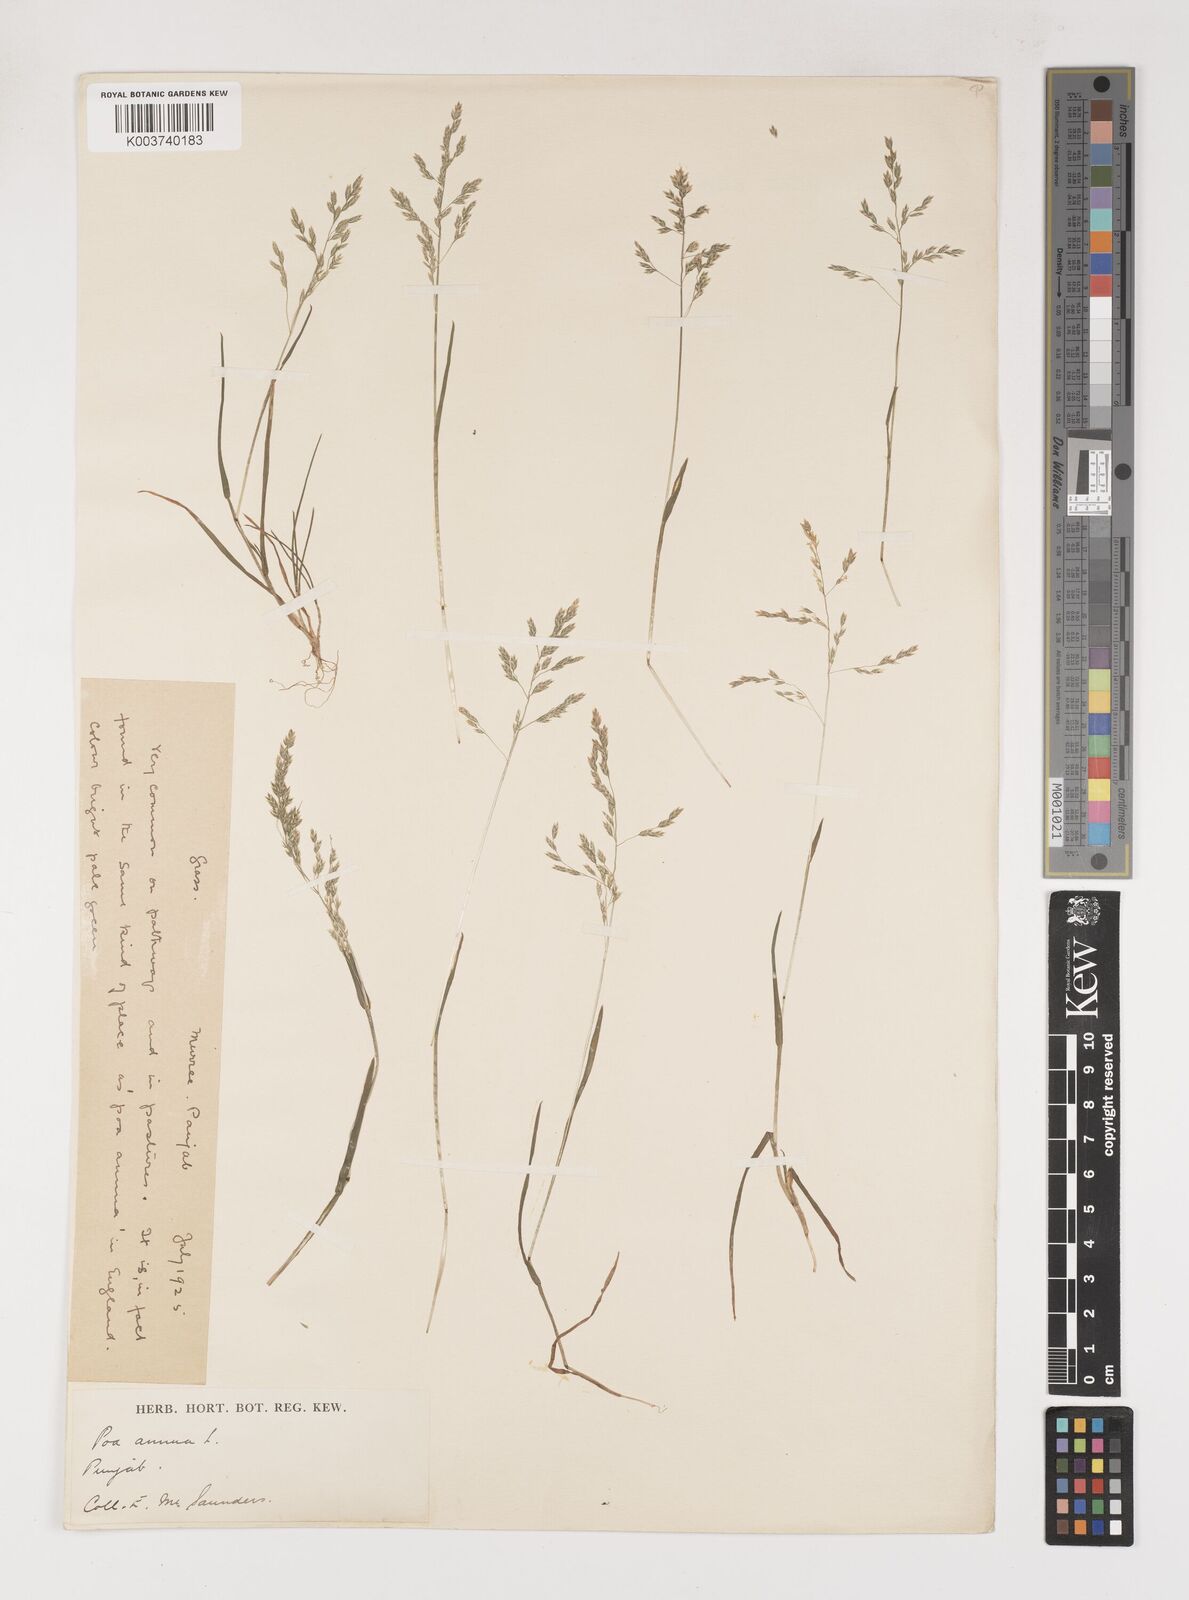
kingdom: Plantae
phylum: Tracheophyta
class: Liliopsida
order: Poales
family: Poaceae
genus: Poa
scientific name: Poa annua
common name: Annual bluegrass
